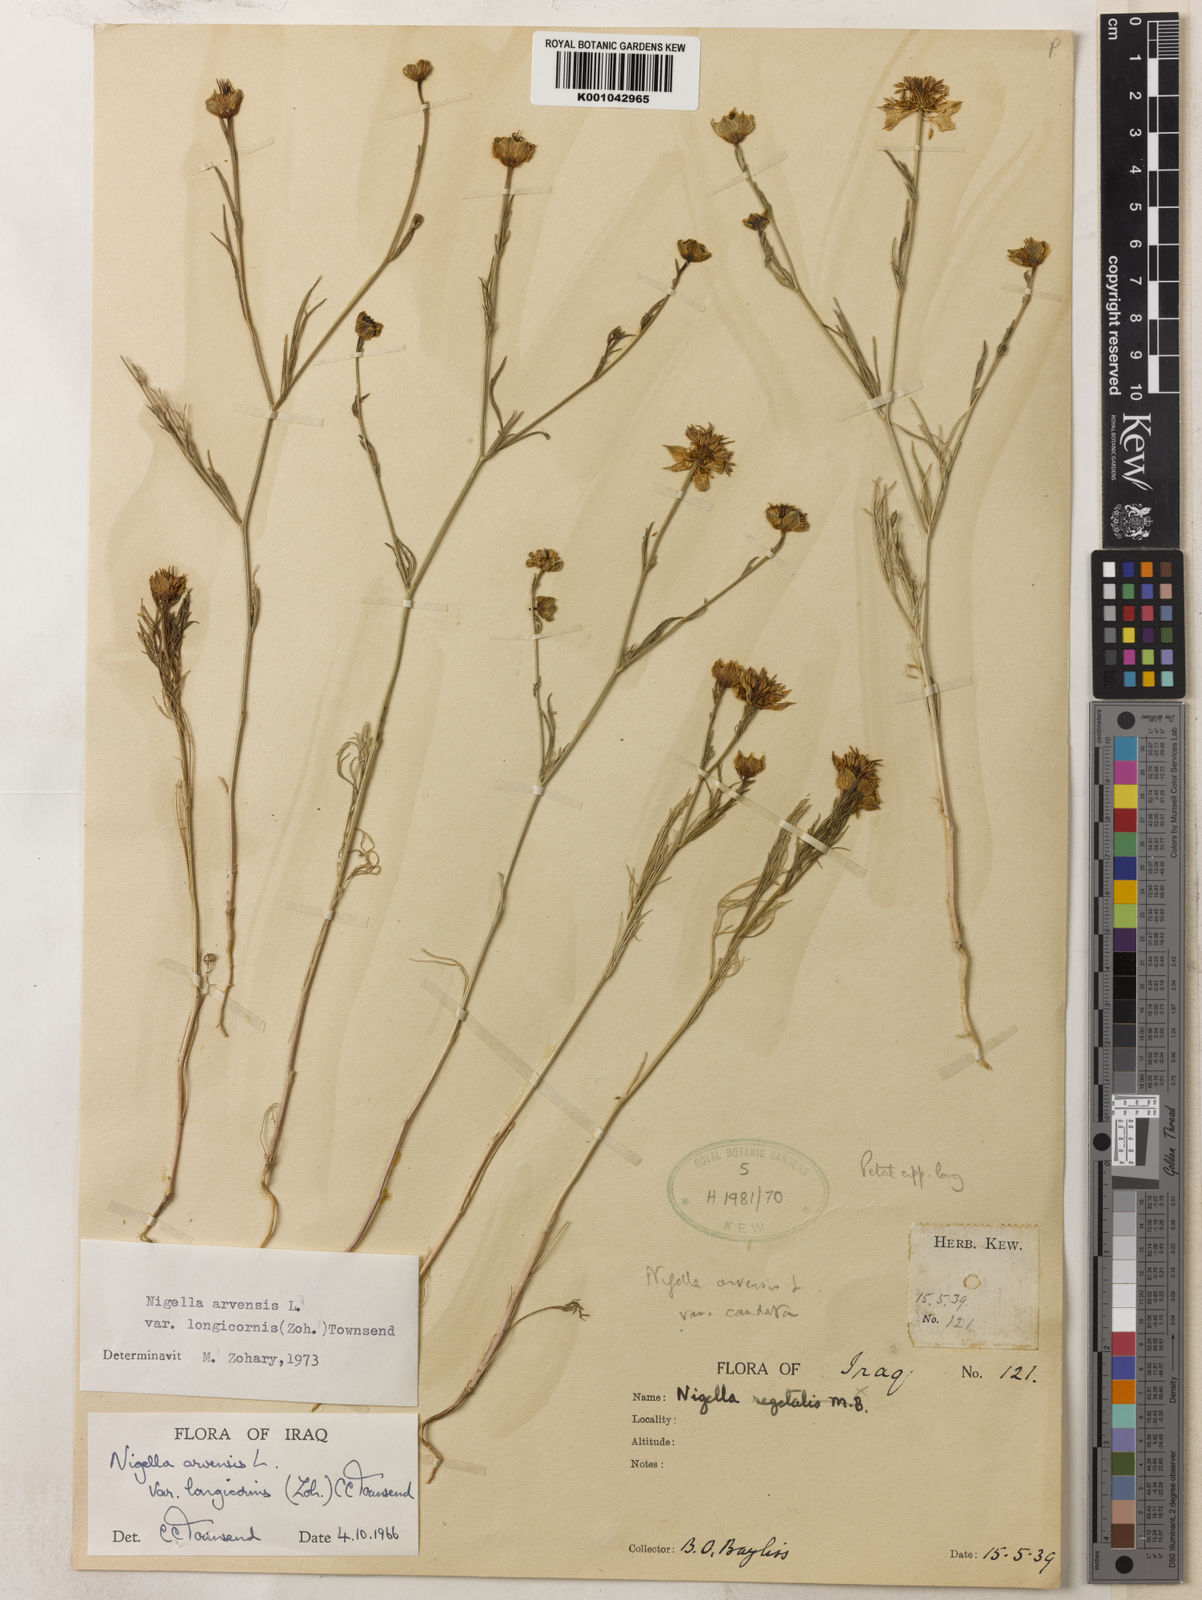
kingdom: Plantae
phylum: Tracheophyta
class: Magnoliopsida
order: Ranunculales
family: Ranunculaceae
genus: Nigella
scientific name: Nigella arvensis
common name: Wild fennel-flower
